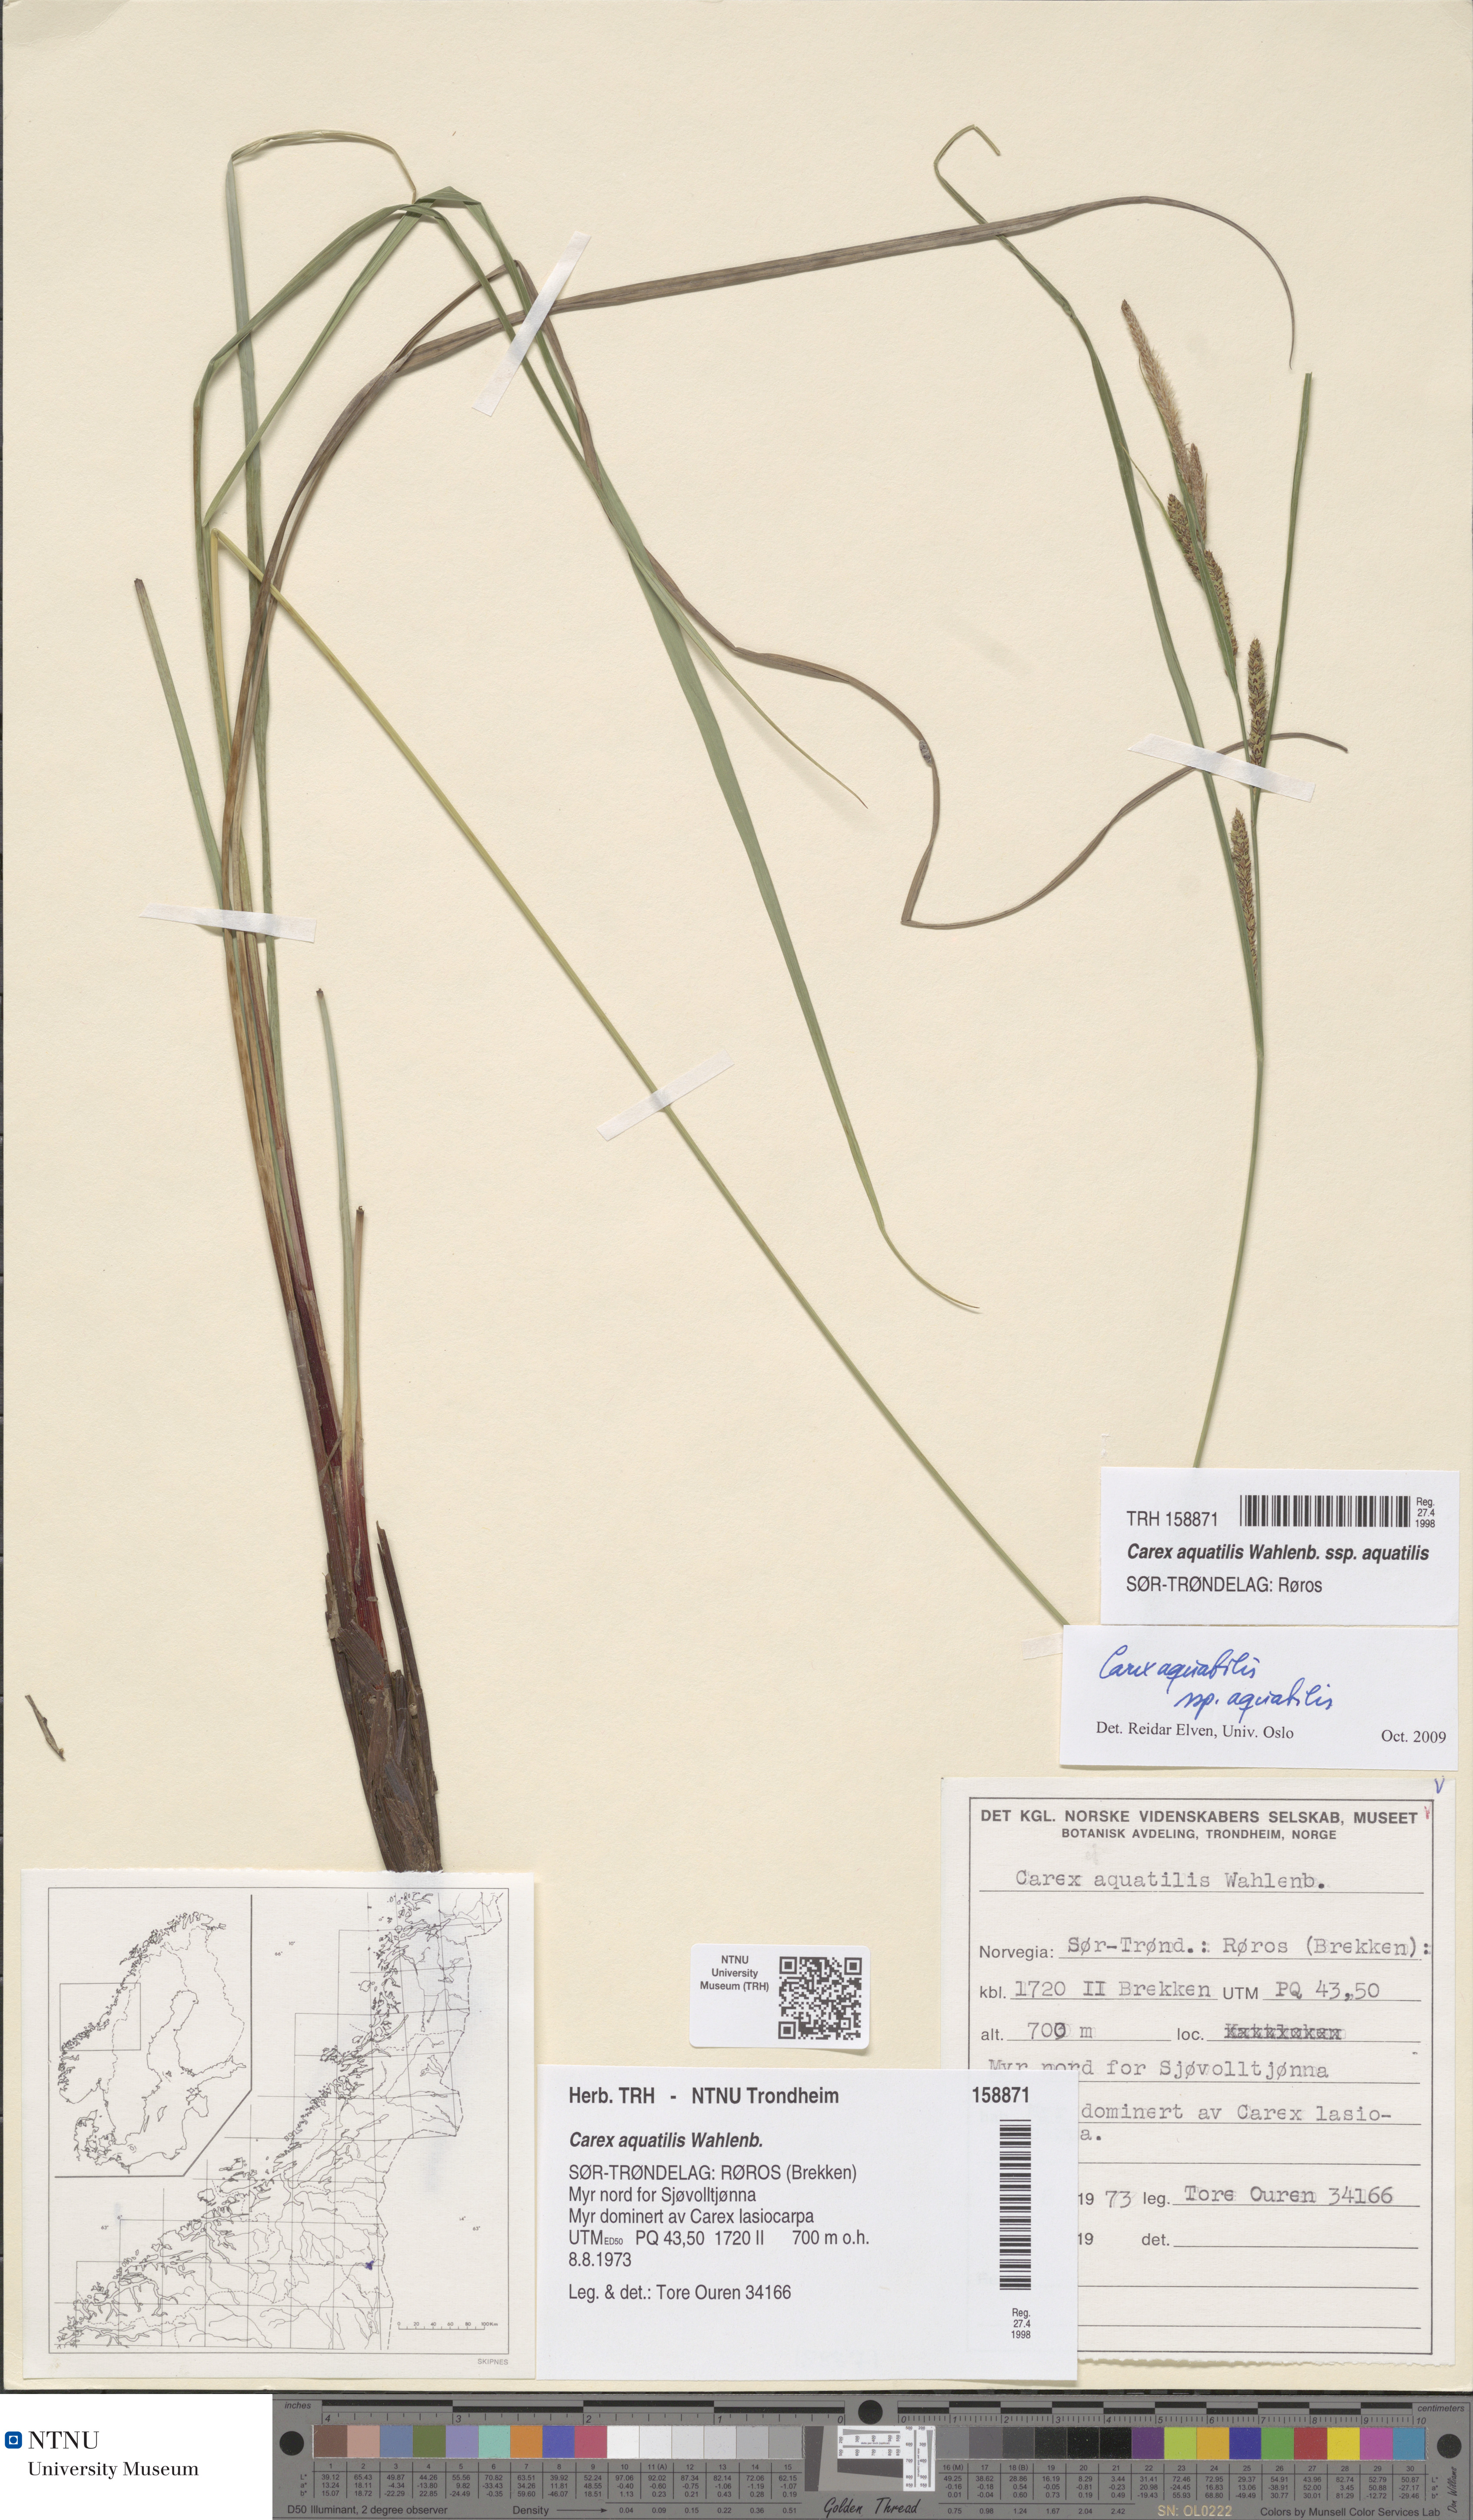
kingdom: Plantae
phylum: Tracheophyta
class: Liliopsida
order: Poales
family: Cyperaceae
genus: Carex
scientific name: Carex aquatilis
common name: Water sedge
